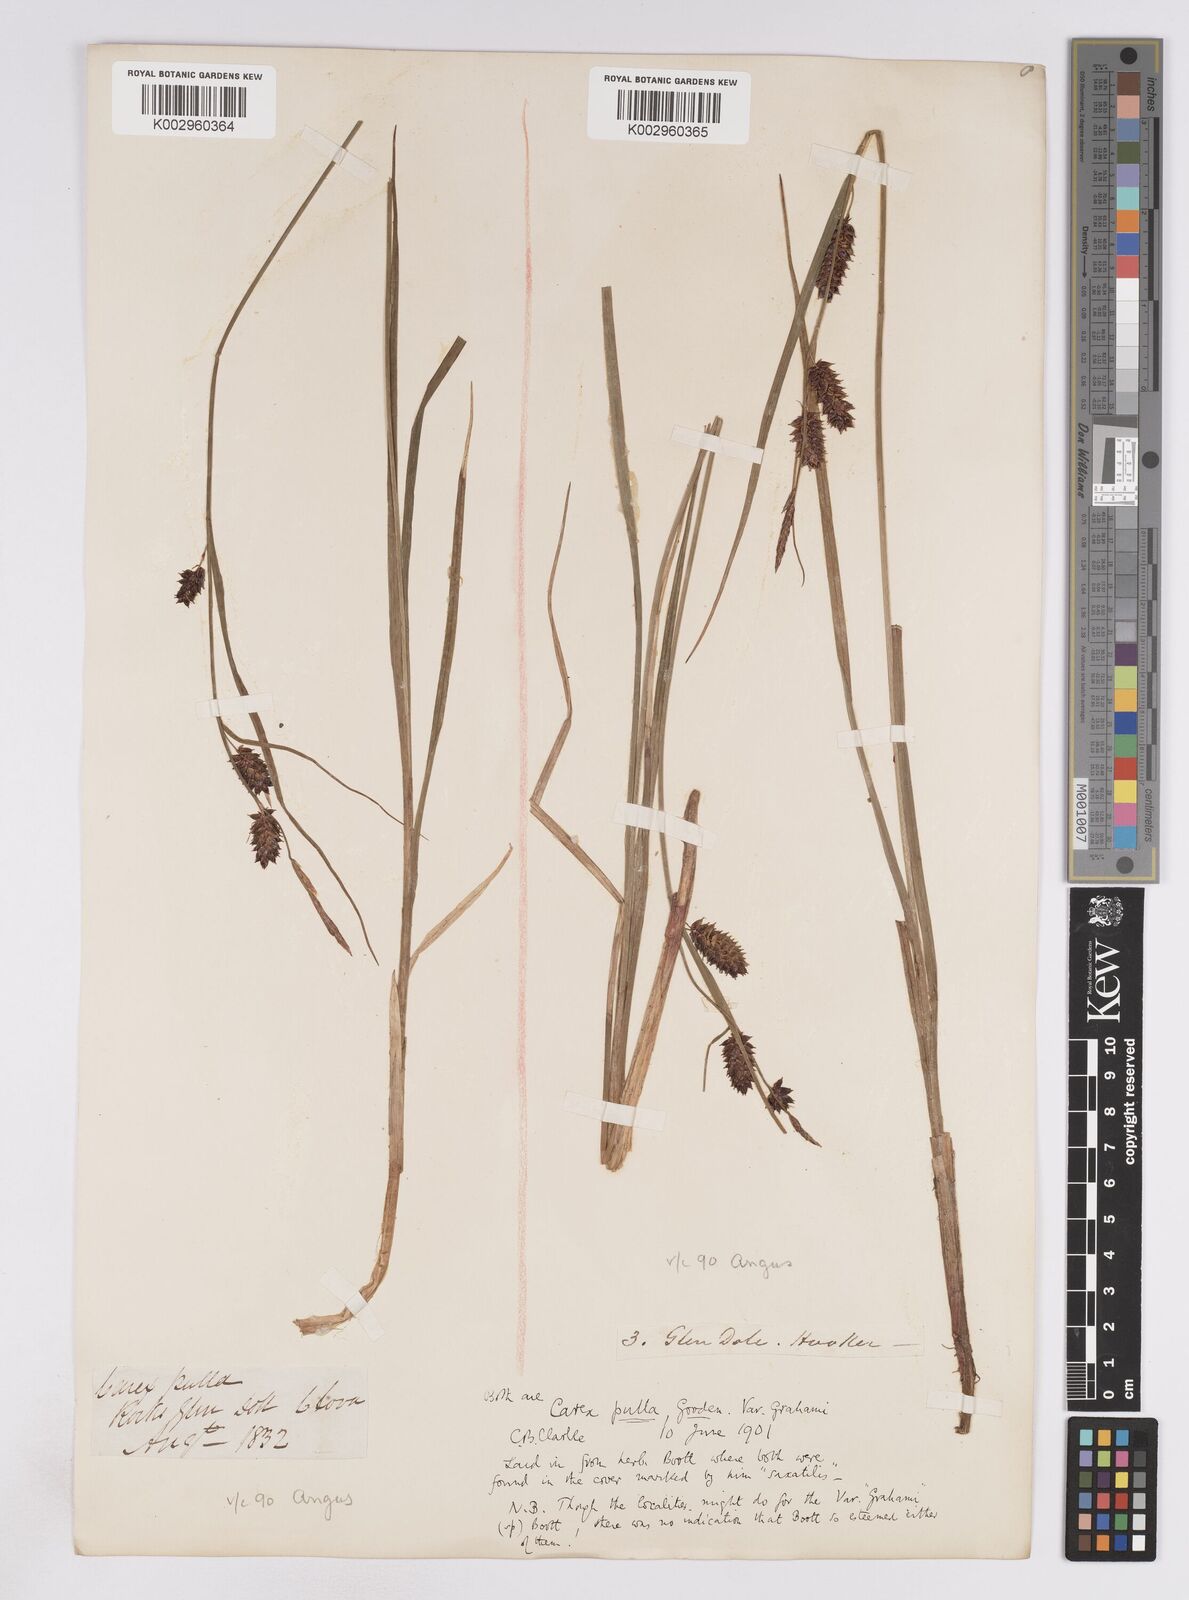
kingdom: Plantae
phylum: Tracheophyta
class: Liliopsida
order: Poales
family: Cyperaceae
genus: Carex
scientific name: Carex vesicaria
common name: Bladder-sedge
